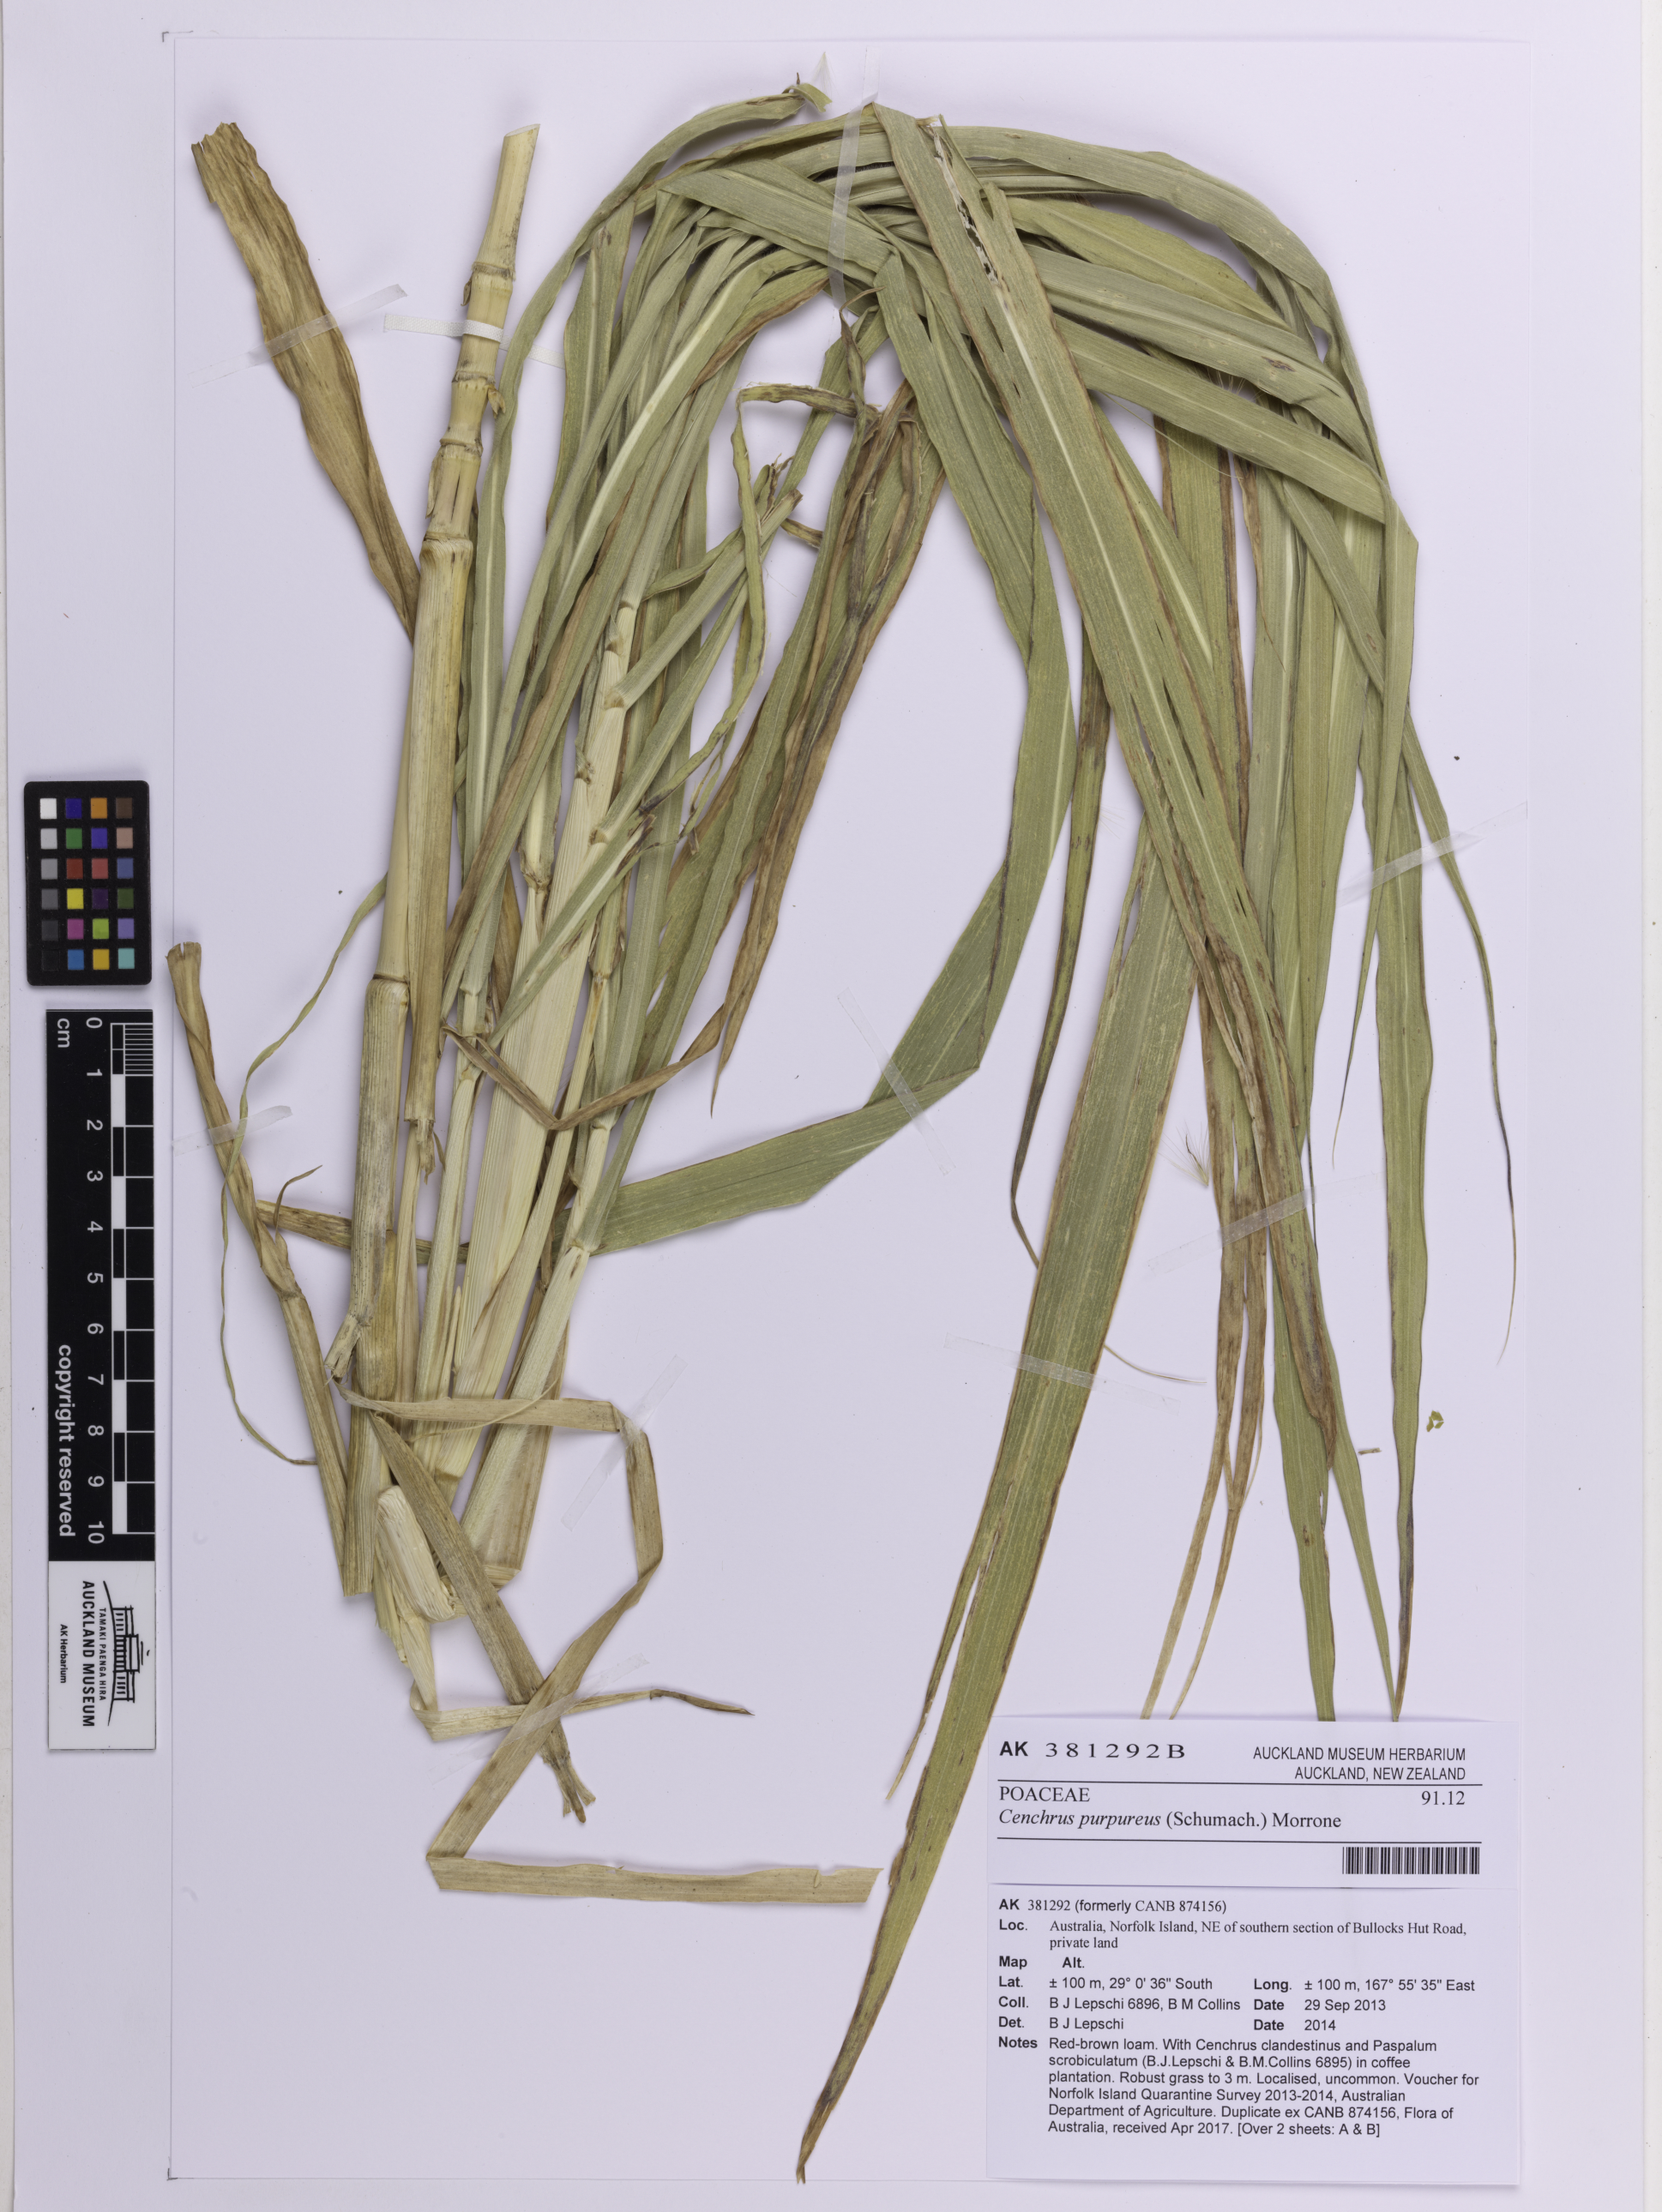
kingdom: Plantae
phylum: Tracheophyta
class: Liliopsida
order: Poales
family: Poaceae
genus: Cenchrus
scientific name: Cenchrus purpureus
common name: Elephant grass
